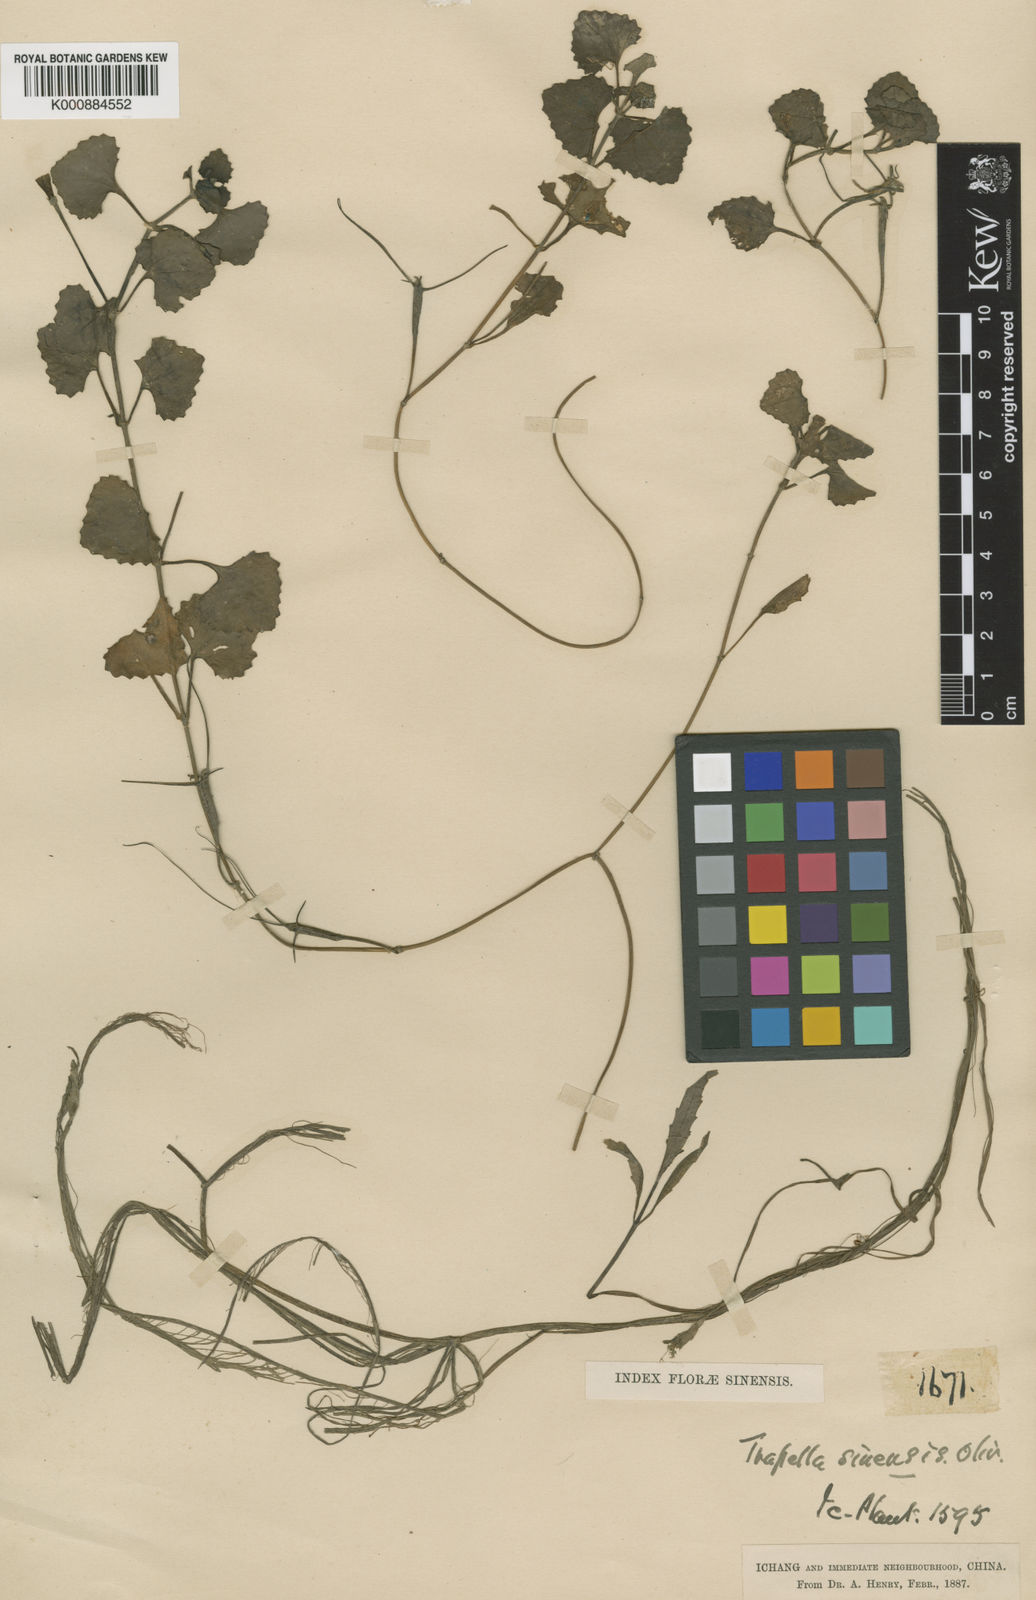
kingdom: Plantae
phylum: Tracheophyta
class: Magnoliopsida
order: Lamiales
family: Plantaginaceae
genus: Trapella
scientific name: Trapella sinensis
